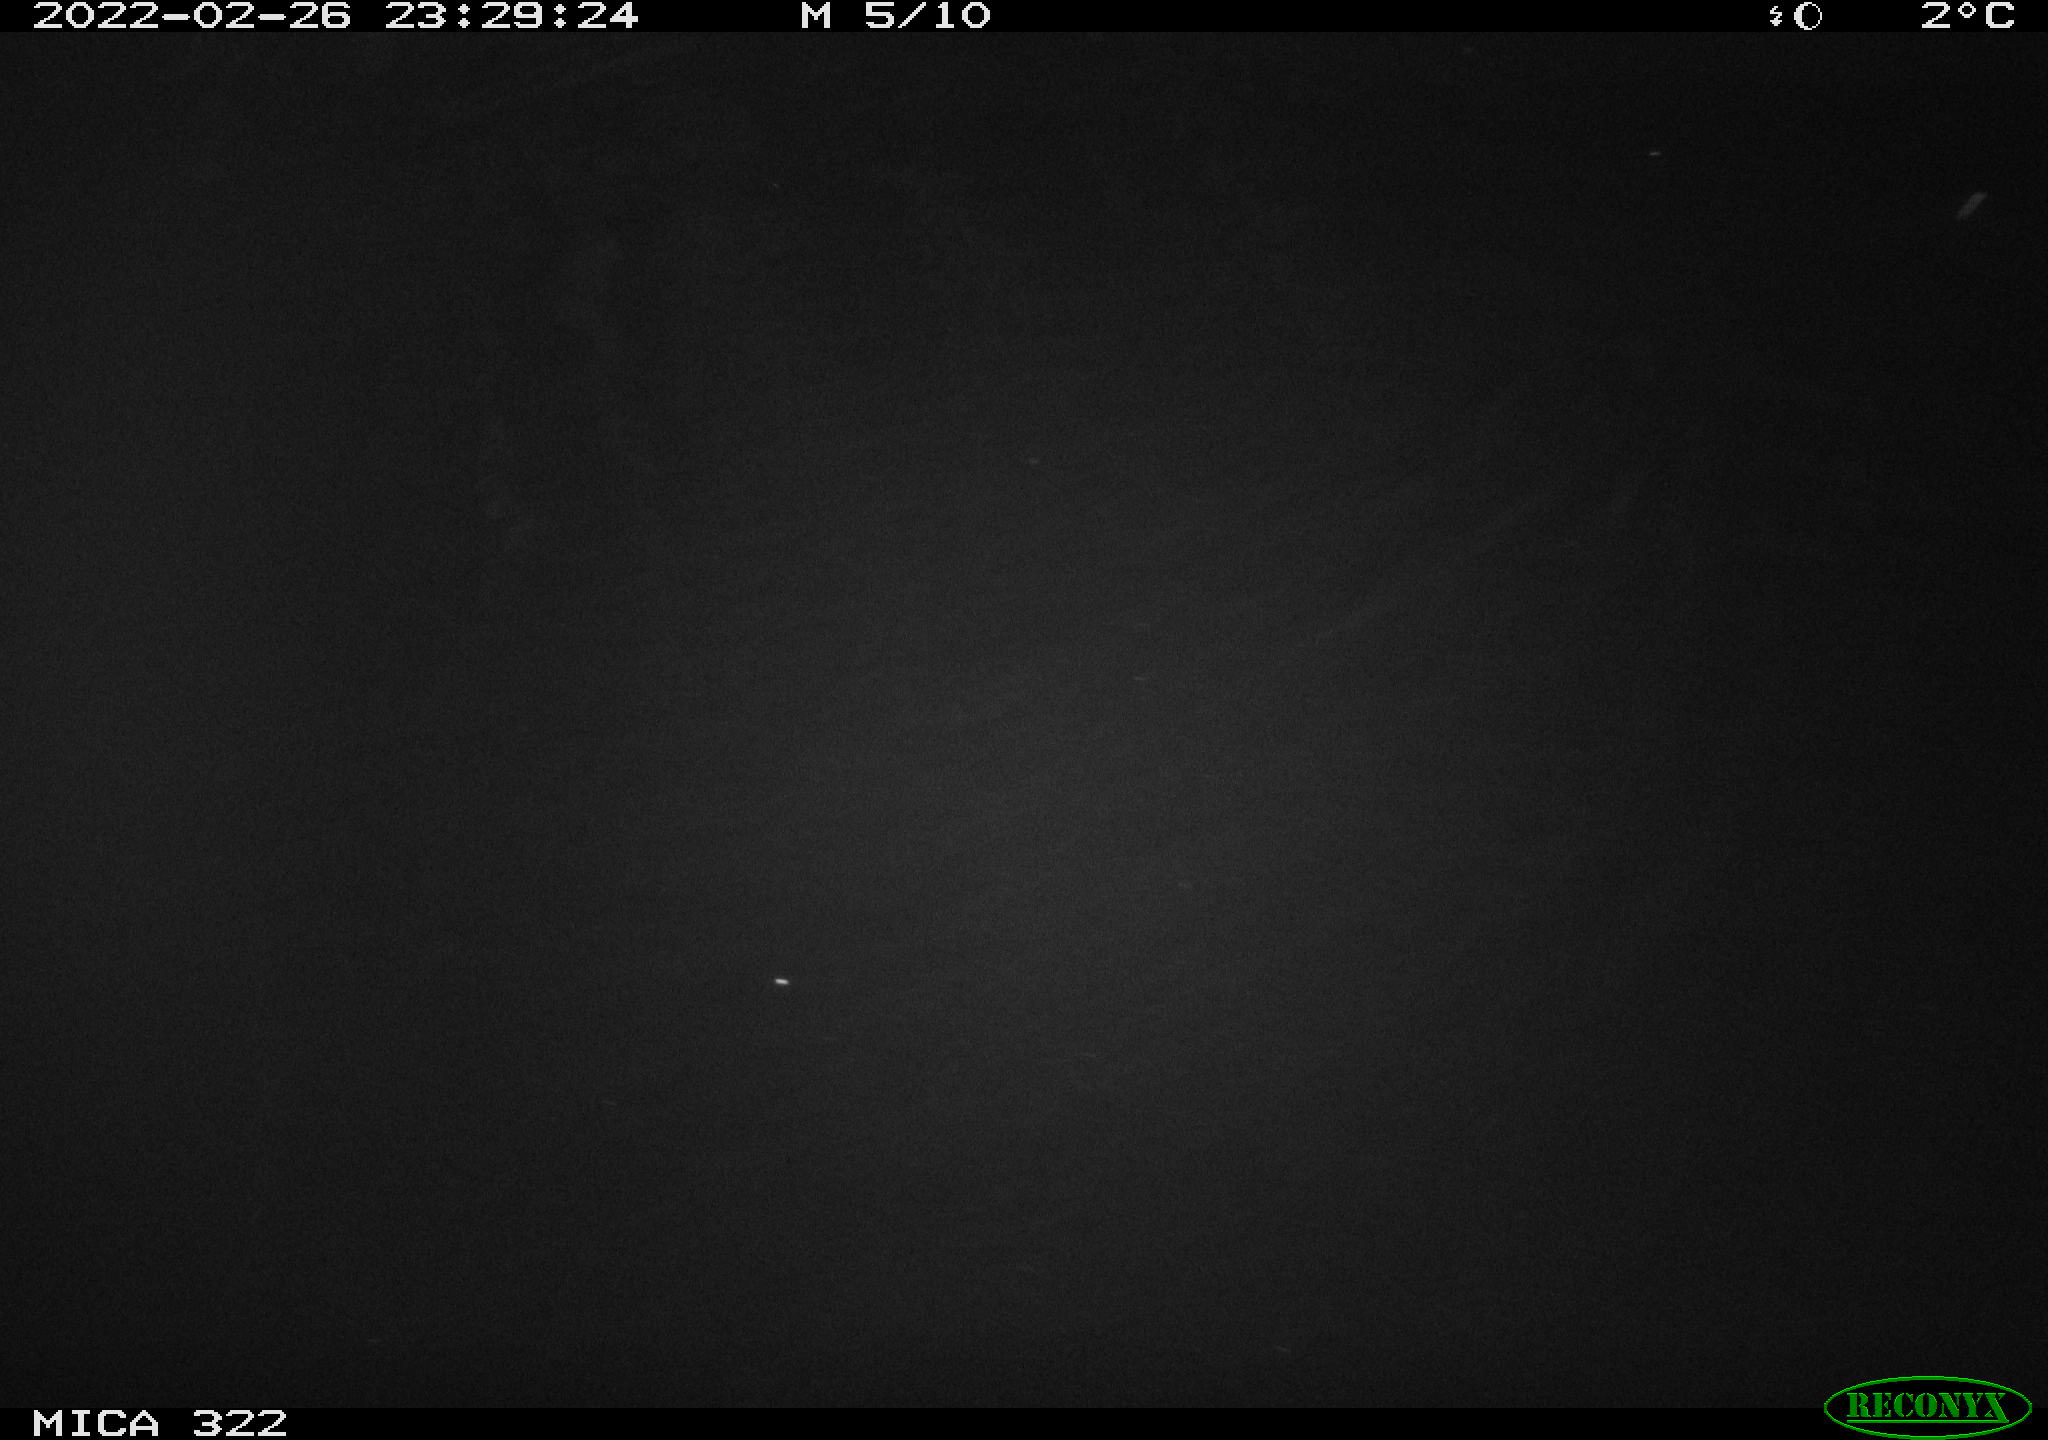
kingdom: Animalia
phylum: Chordata
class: Mammalia
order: Rodentia
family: Muridae
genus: Rattus
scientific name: Rattus norvegicus
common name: Brown rat
